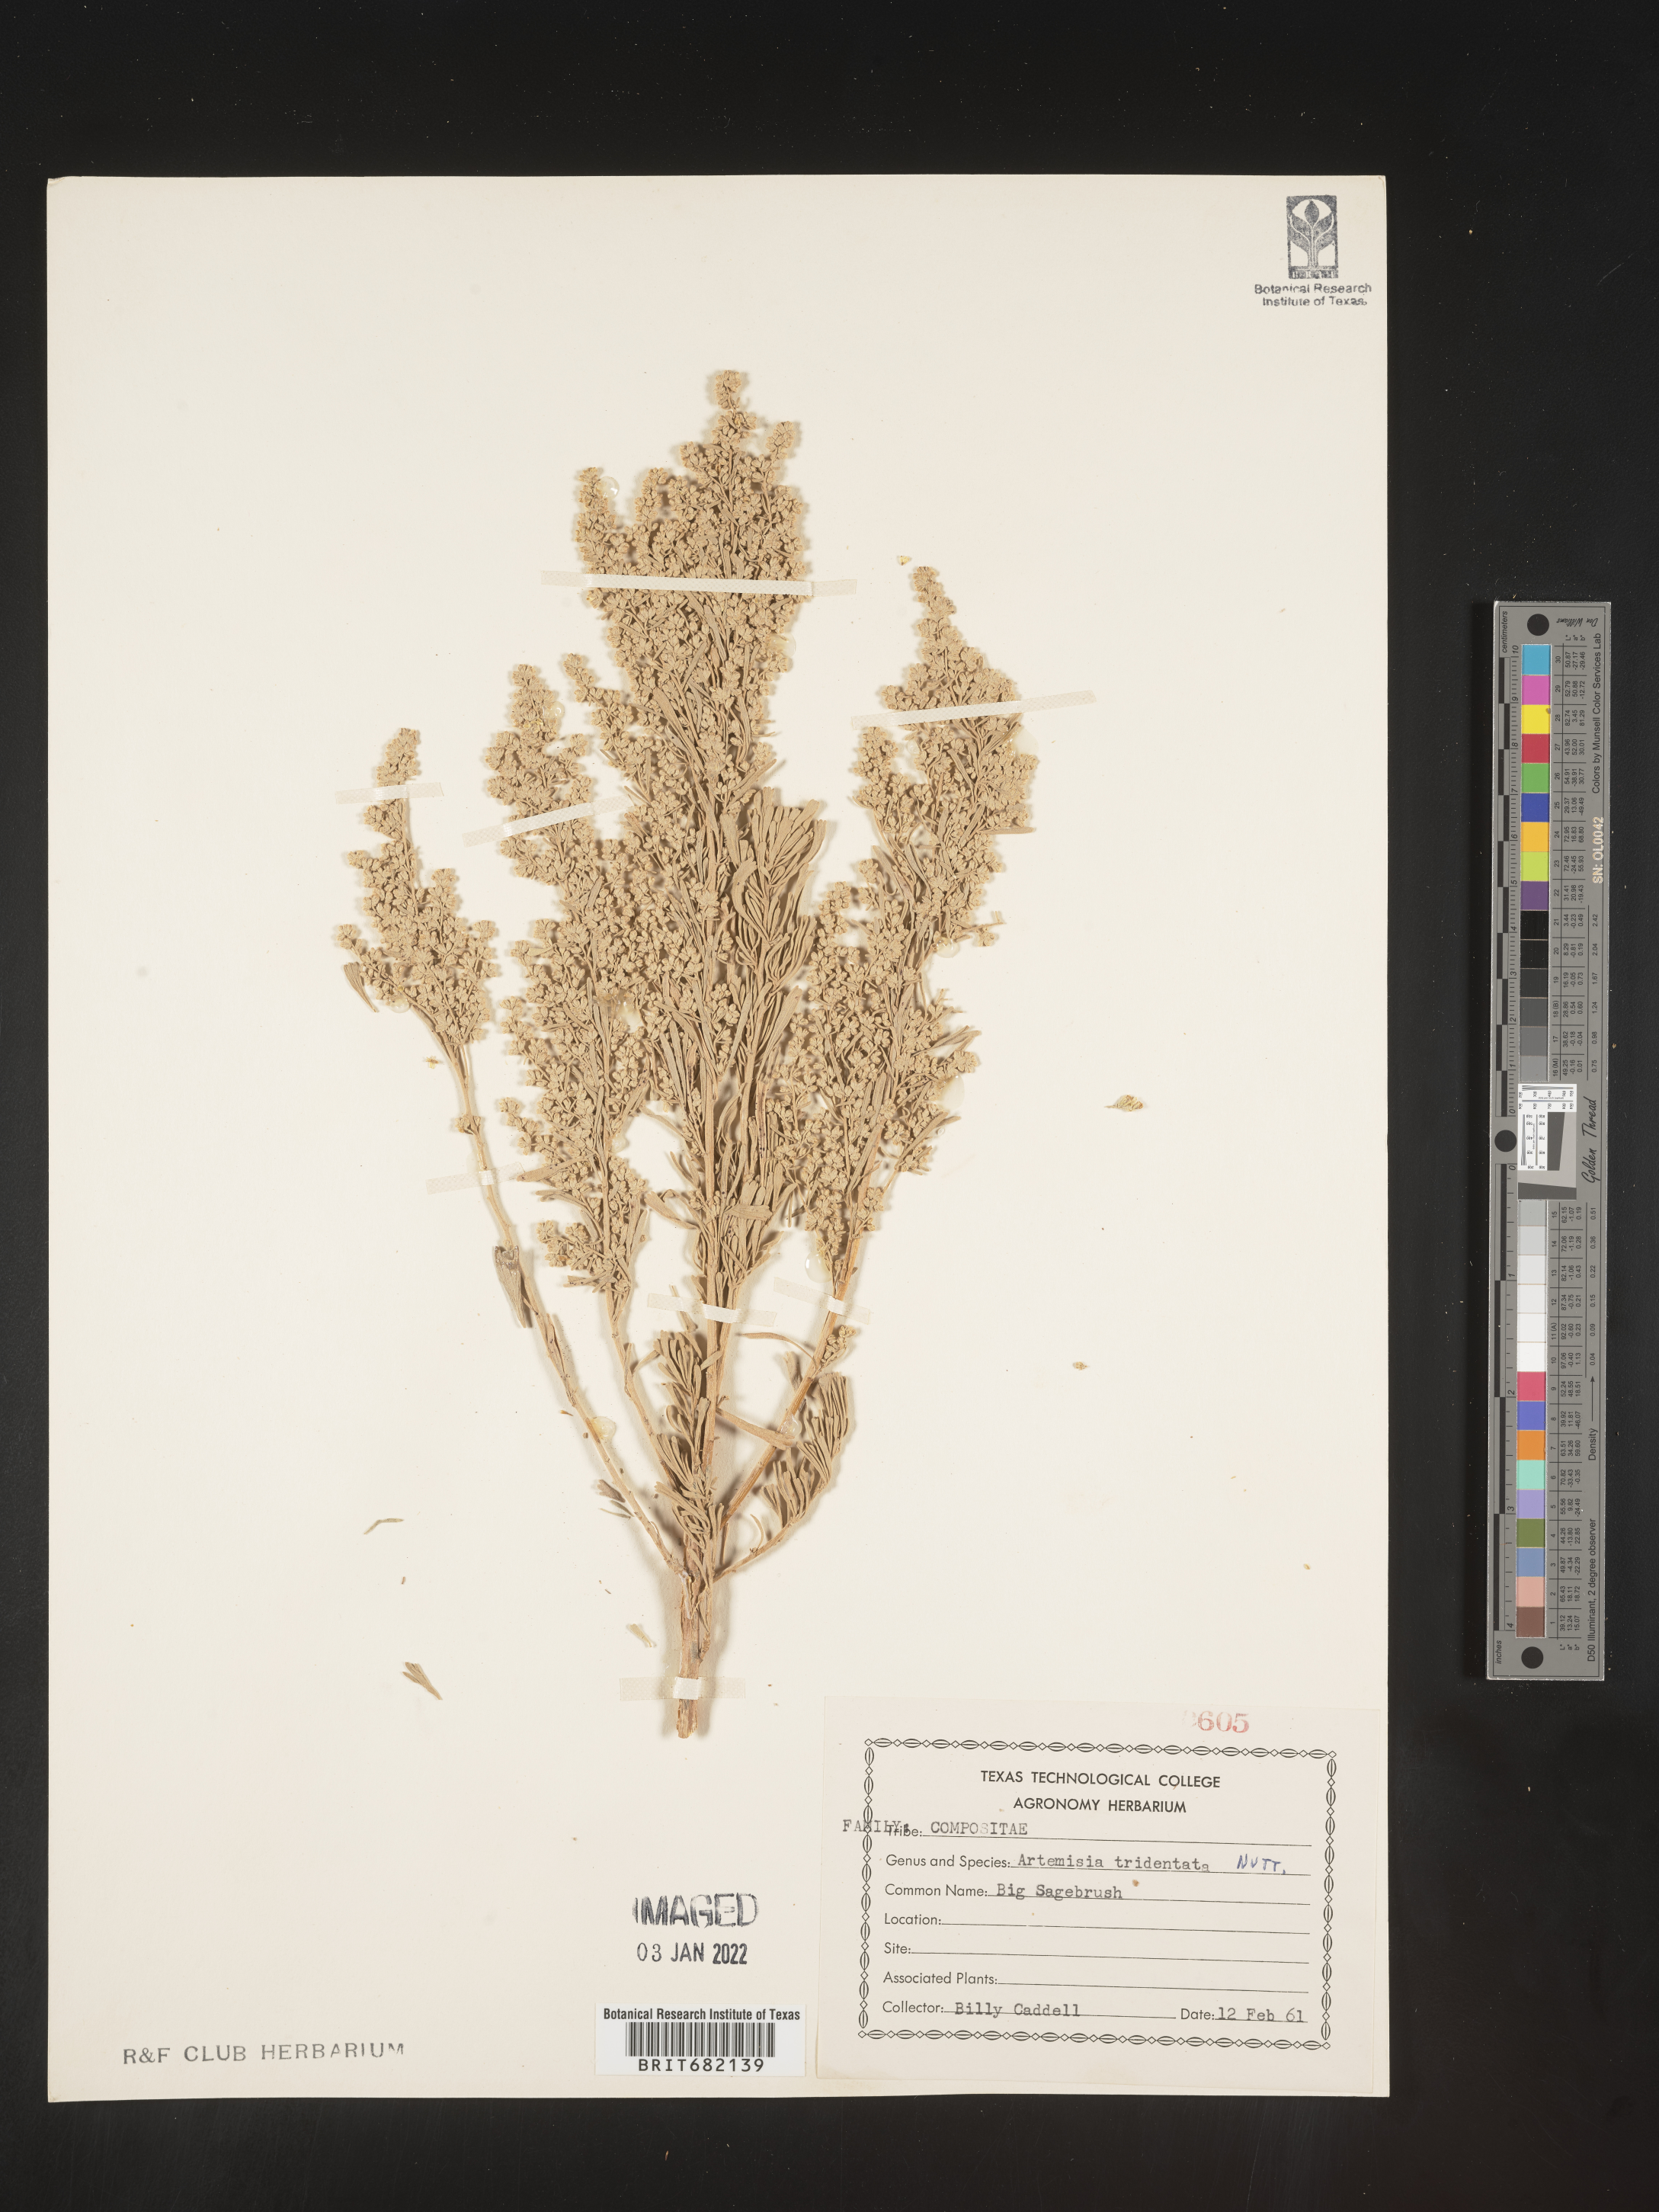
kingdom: Plantae
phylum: Tracheophyta
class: Magnoliopsida
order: Asterales
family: Asteraceae
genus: Artemisia
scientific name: Artemisia tridentata
